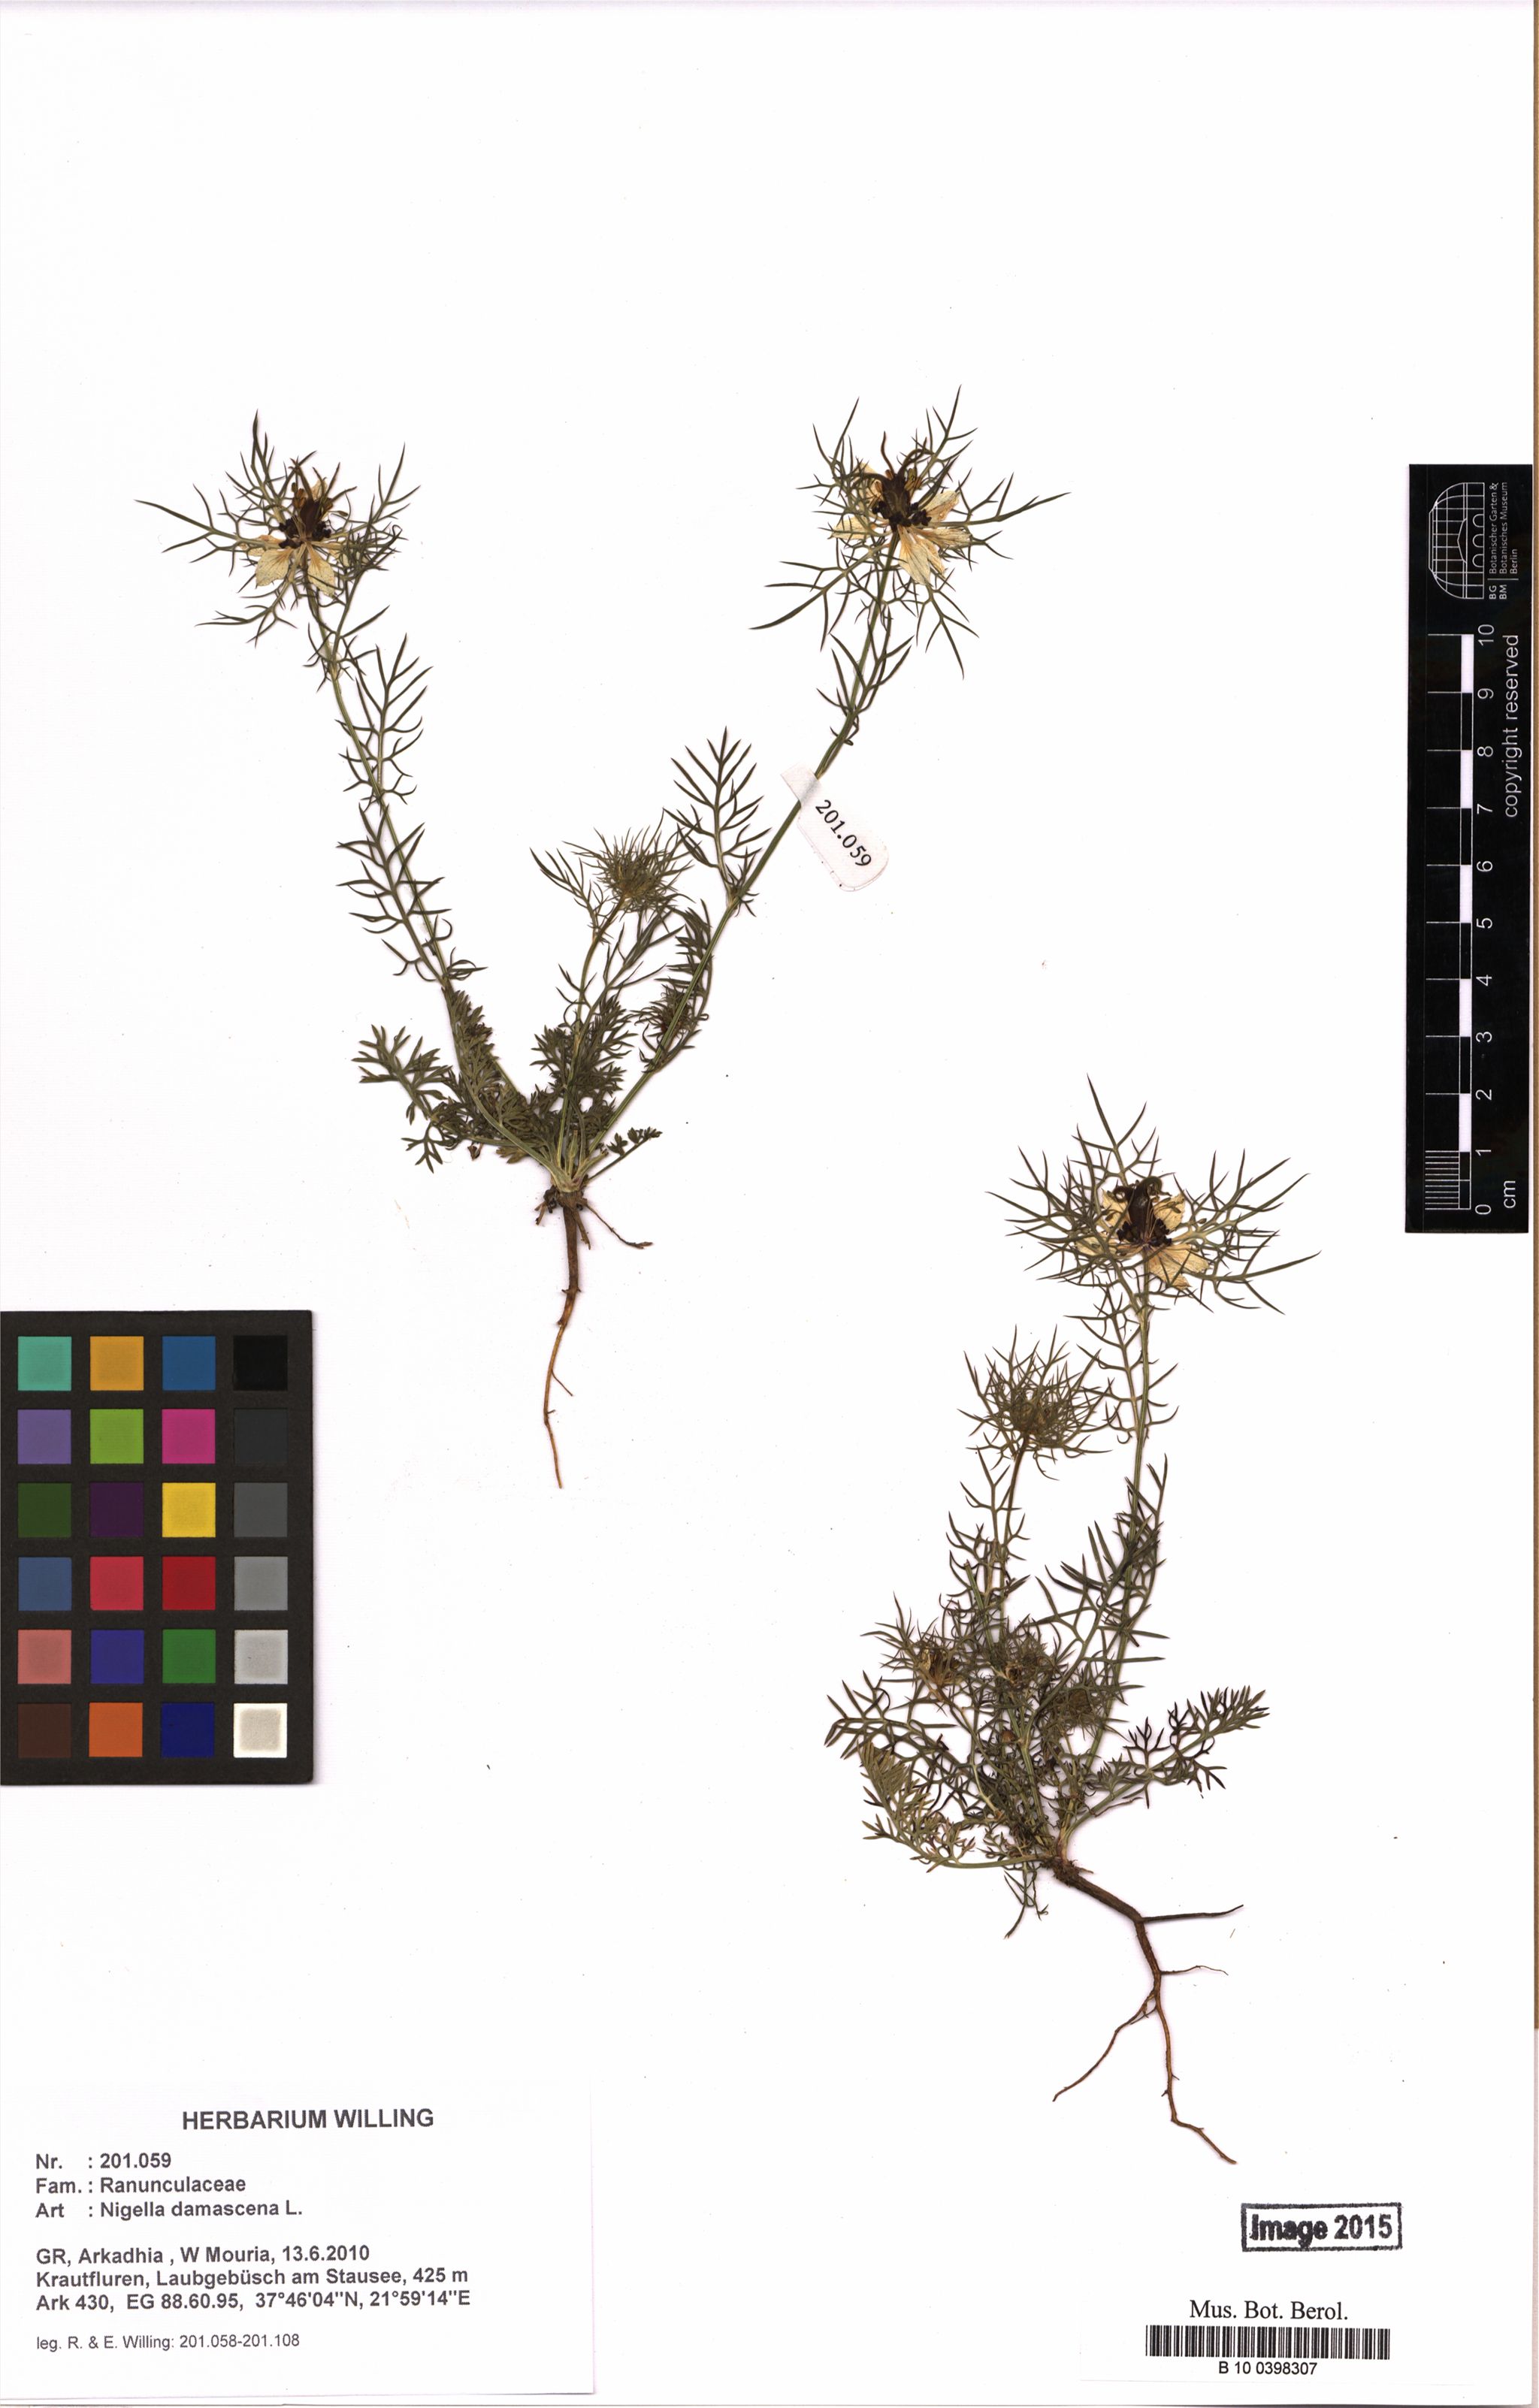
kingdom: Plantae
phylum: Tracheophyta
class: Magnoliopsida
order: Ranunculales
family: Ranunculaceae
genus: Nigella
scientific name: Nigella damascena
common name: Love-in-a-mist
